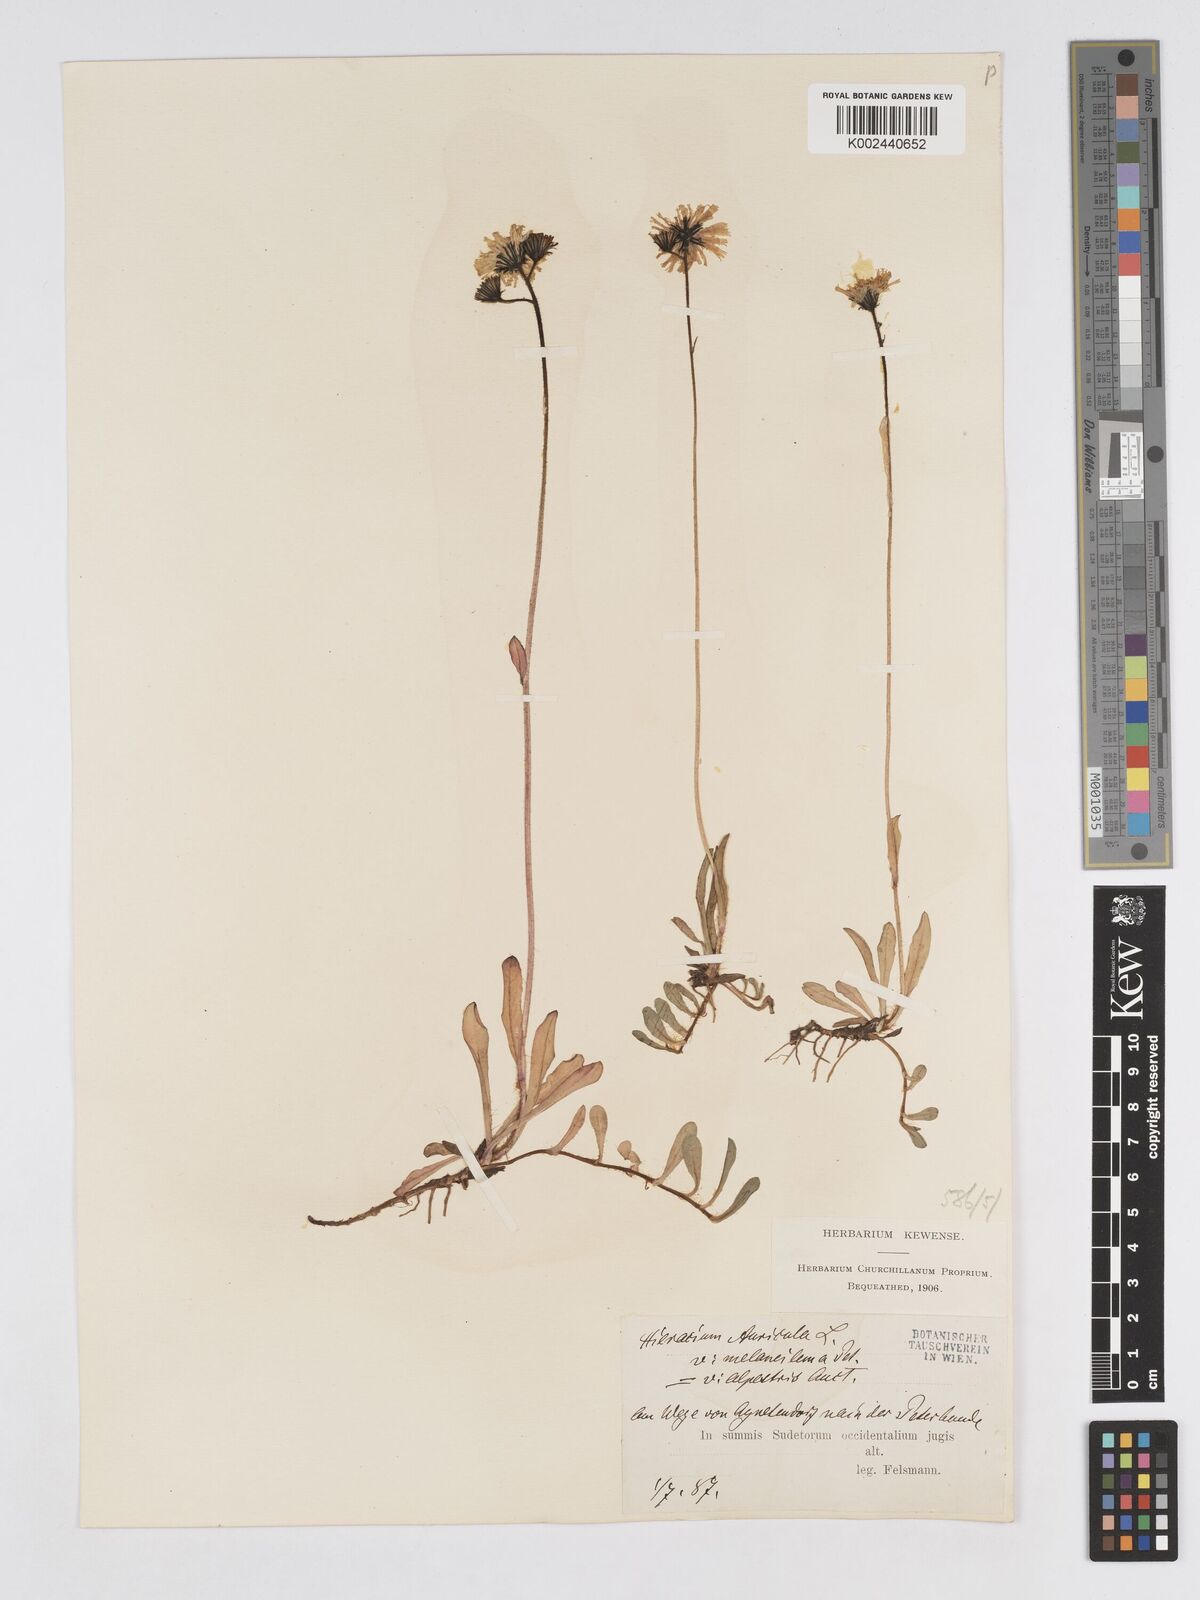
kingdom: Plantae
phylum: Tracheophyta
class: Magnoliopsida
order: Asterales
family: Asteraceae
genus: Pilosella
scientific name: Pilosella lactucella
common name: Glaucous fox-and-cubs
